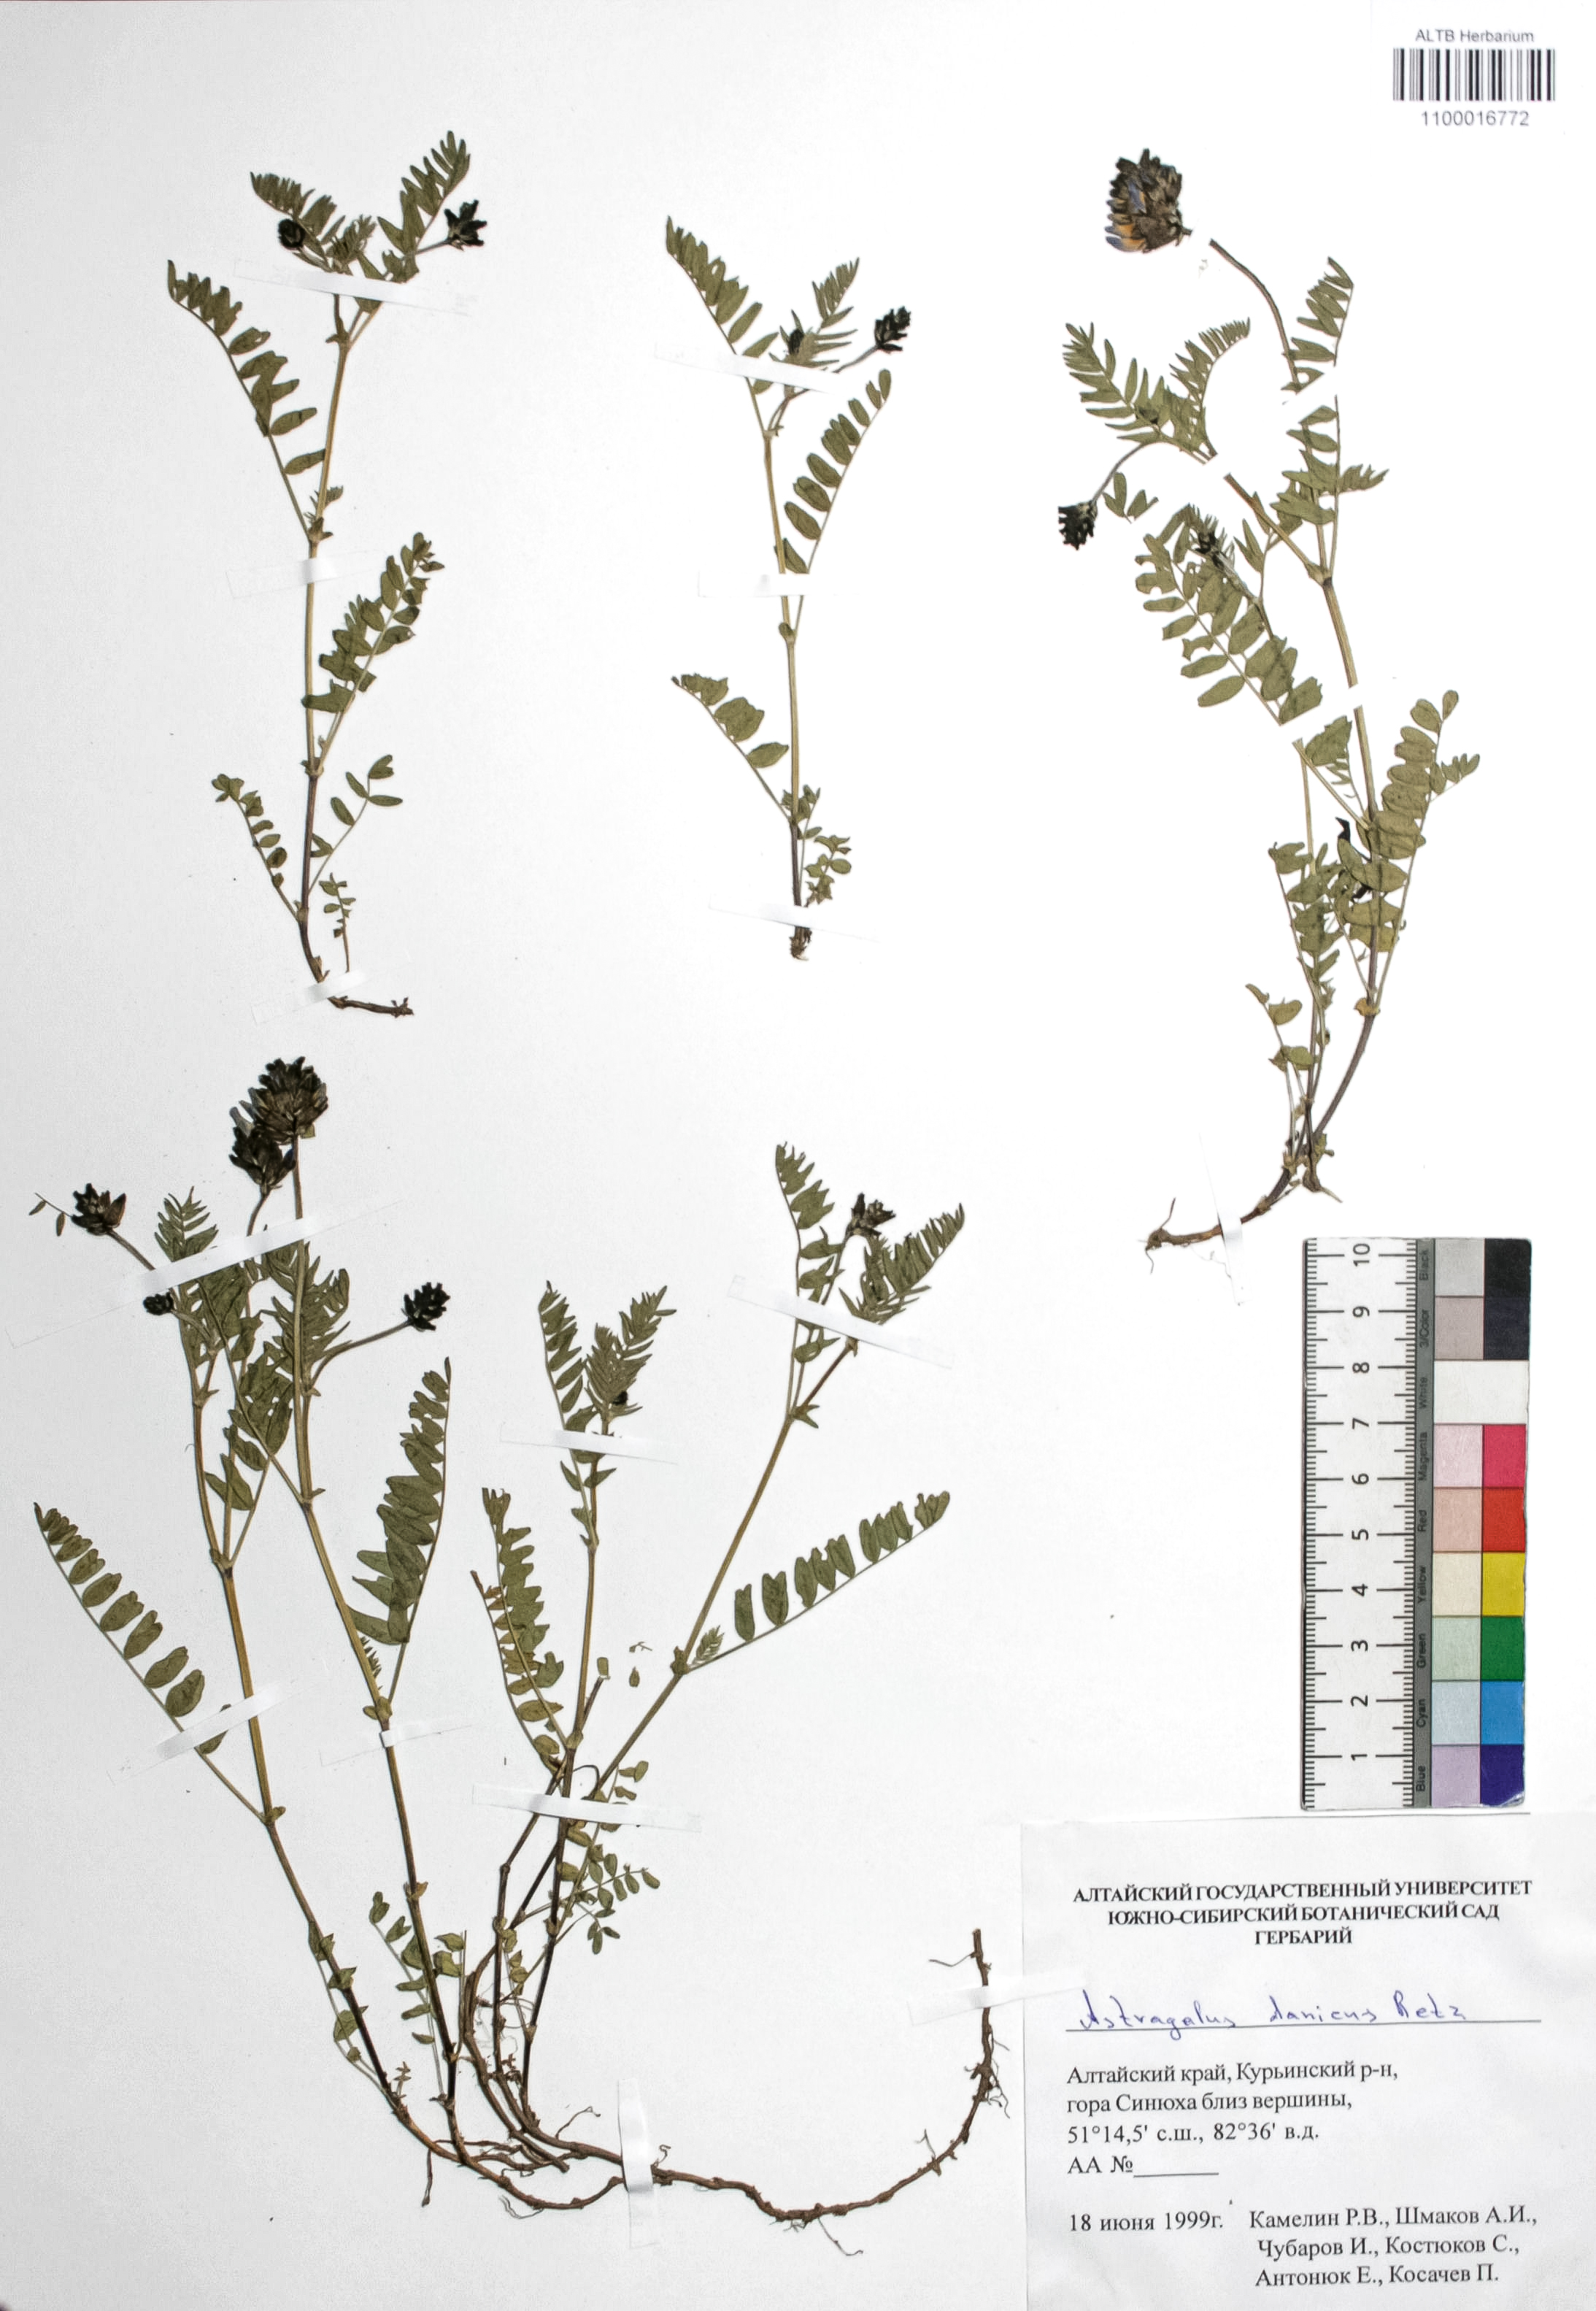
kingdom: Plantae
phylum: Tracheophyta
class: Magnoliopsida
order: Fabales
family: Fabaceae
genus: Astragalus
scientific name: Astragalus danicus
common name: Purple milk-vetch
